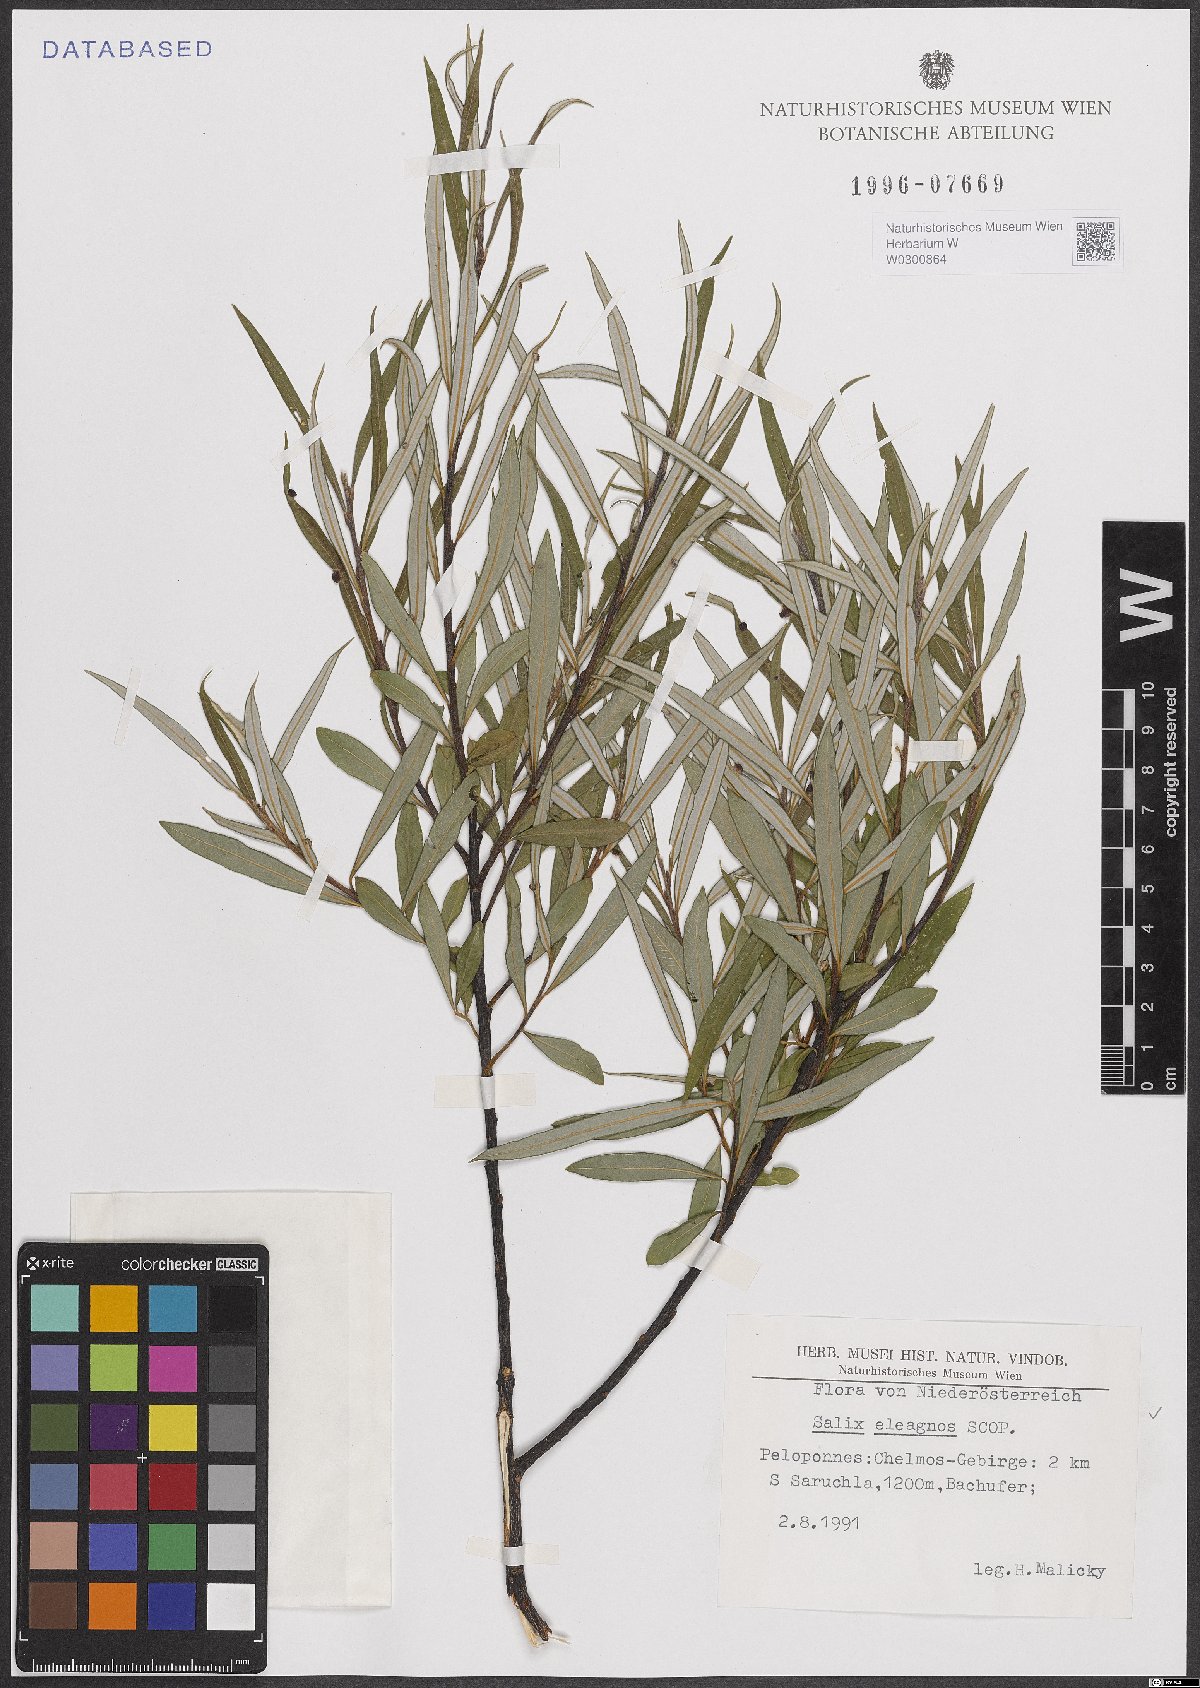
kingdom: Plantae
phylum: Tracheophyta
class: Magnoliopsida
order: Malpighiales
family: Salicaceae
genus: Salix
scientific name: Salix eleagnos
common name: Elaeagnus willow
